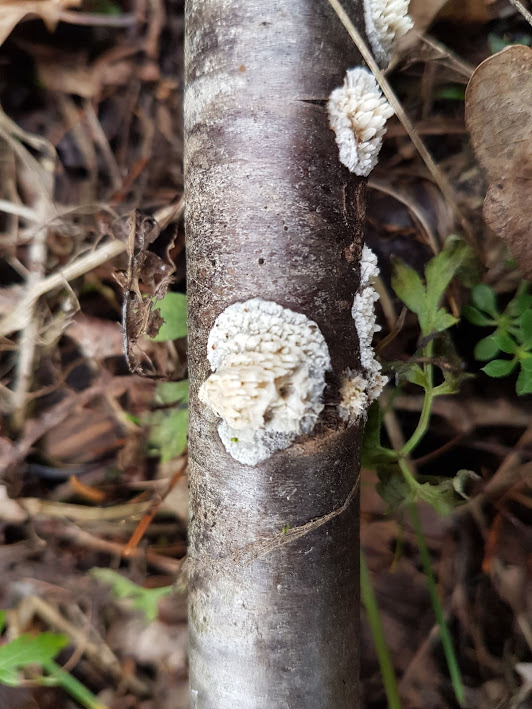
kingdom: Fungi
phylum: Basidiomycota
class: Agaricomycetes
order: Hymenochaetales
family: Schizoporaceae
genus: Xylodon
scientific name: Xylodon radula
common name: grovtandet kalkskind
